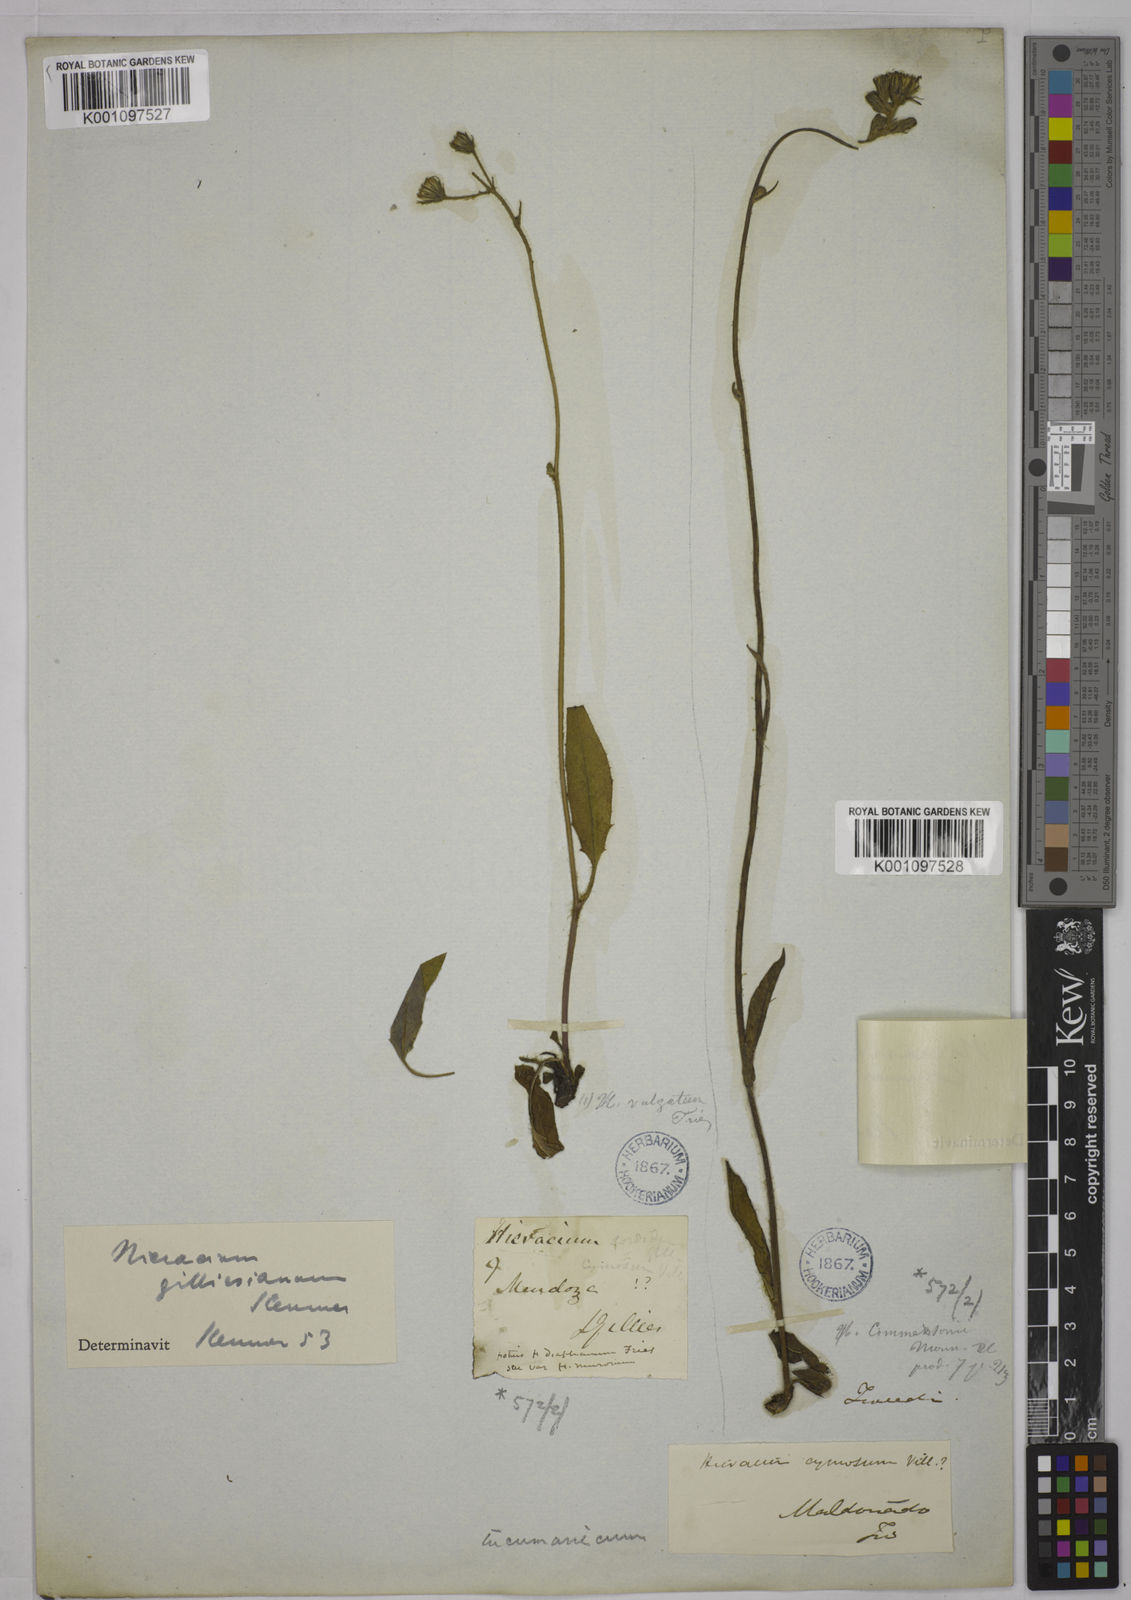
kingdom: Plantae
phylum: Tracheophyta
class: Magnoliopsida
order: Asterales
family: Asteraceae
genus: Hieracium
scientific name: Hieracium tucumanicum
